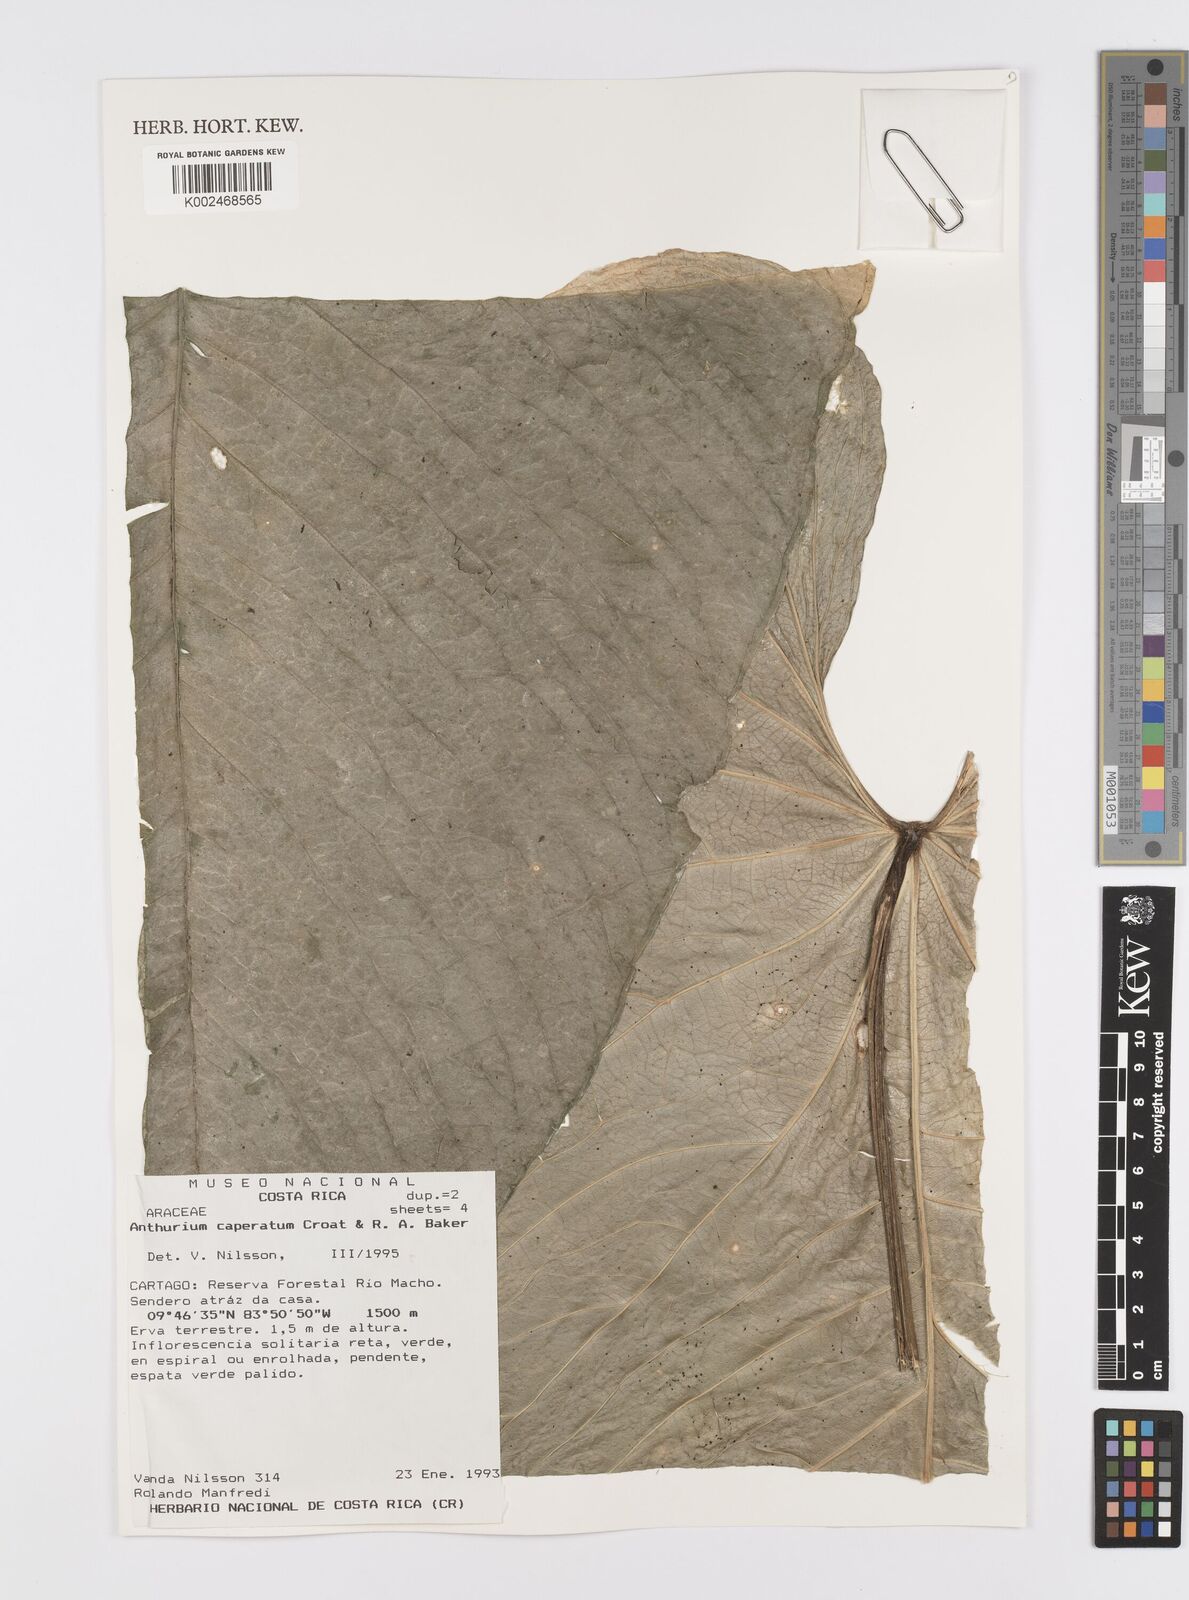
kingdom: Plantae
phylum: Tracheophyta
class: Liliopsida
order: Alismatales
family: Araceae
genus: Anthurium
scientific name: Anthurium caperatum
